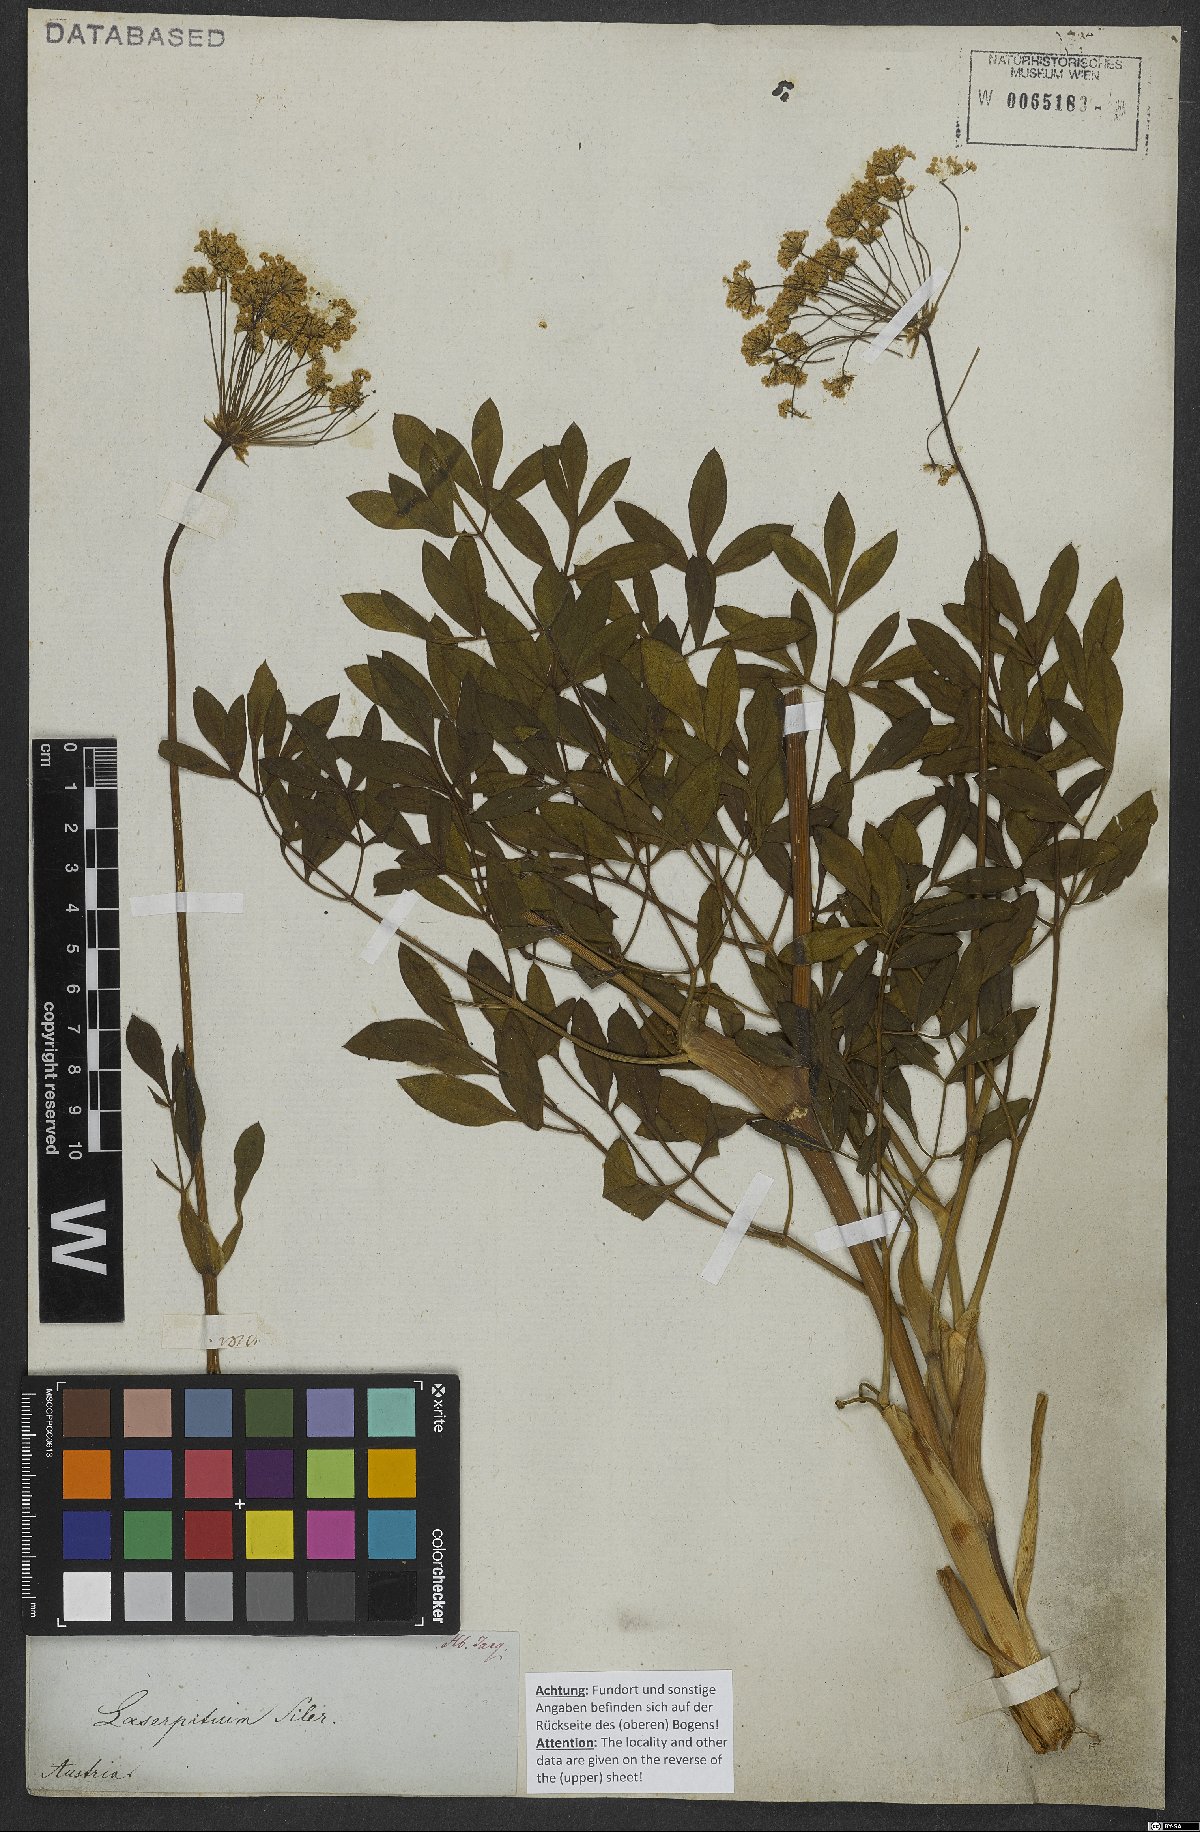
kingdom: Plantae
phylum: Tracheophyta
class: Magnoliopsida
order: Apiales
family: Apiaceae
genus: Siler
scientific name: Siler montanum
